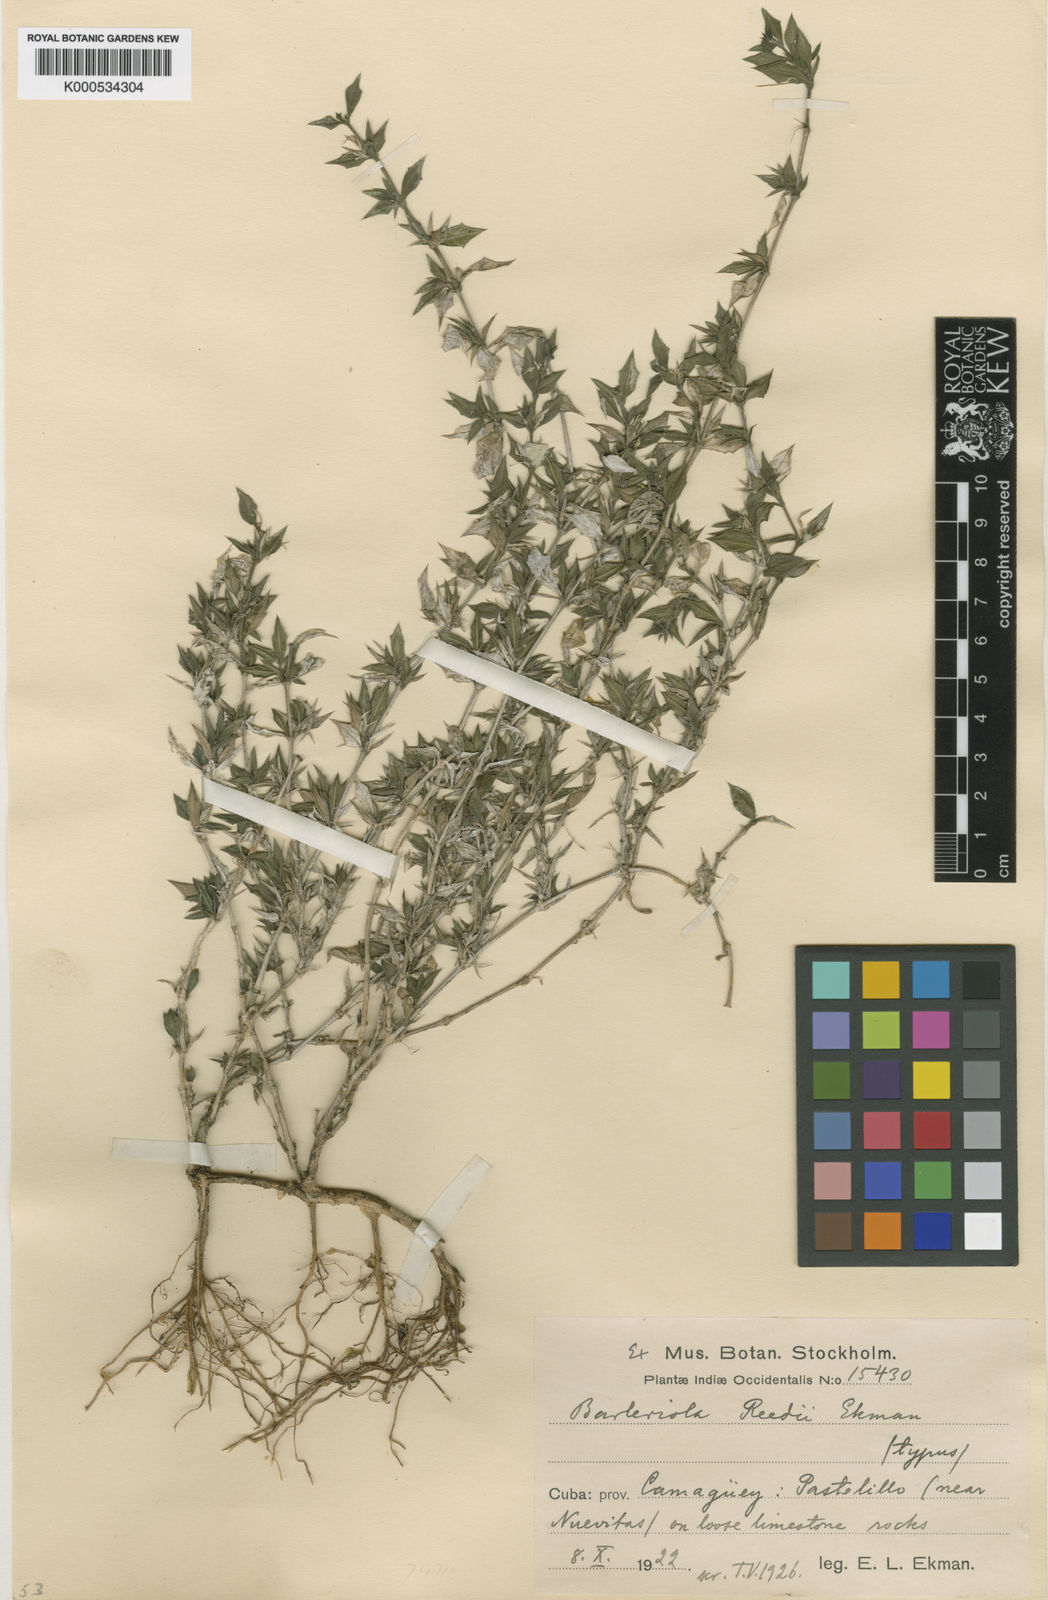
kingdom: Plantae
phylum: Tracheophyta
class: Magnoliopsida
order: Lamiales
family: Acanthaceae
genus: Barleriola
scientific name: Barleriola saturejoides
